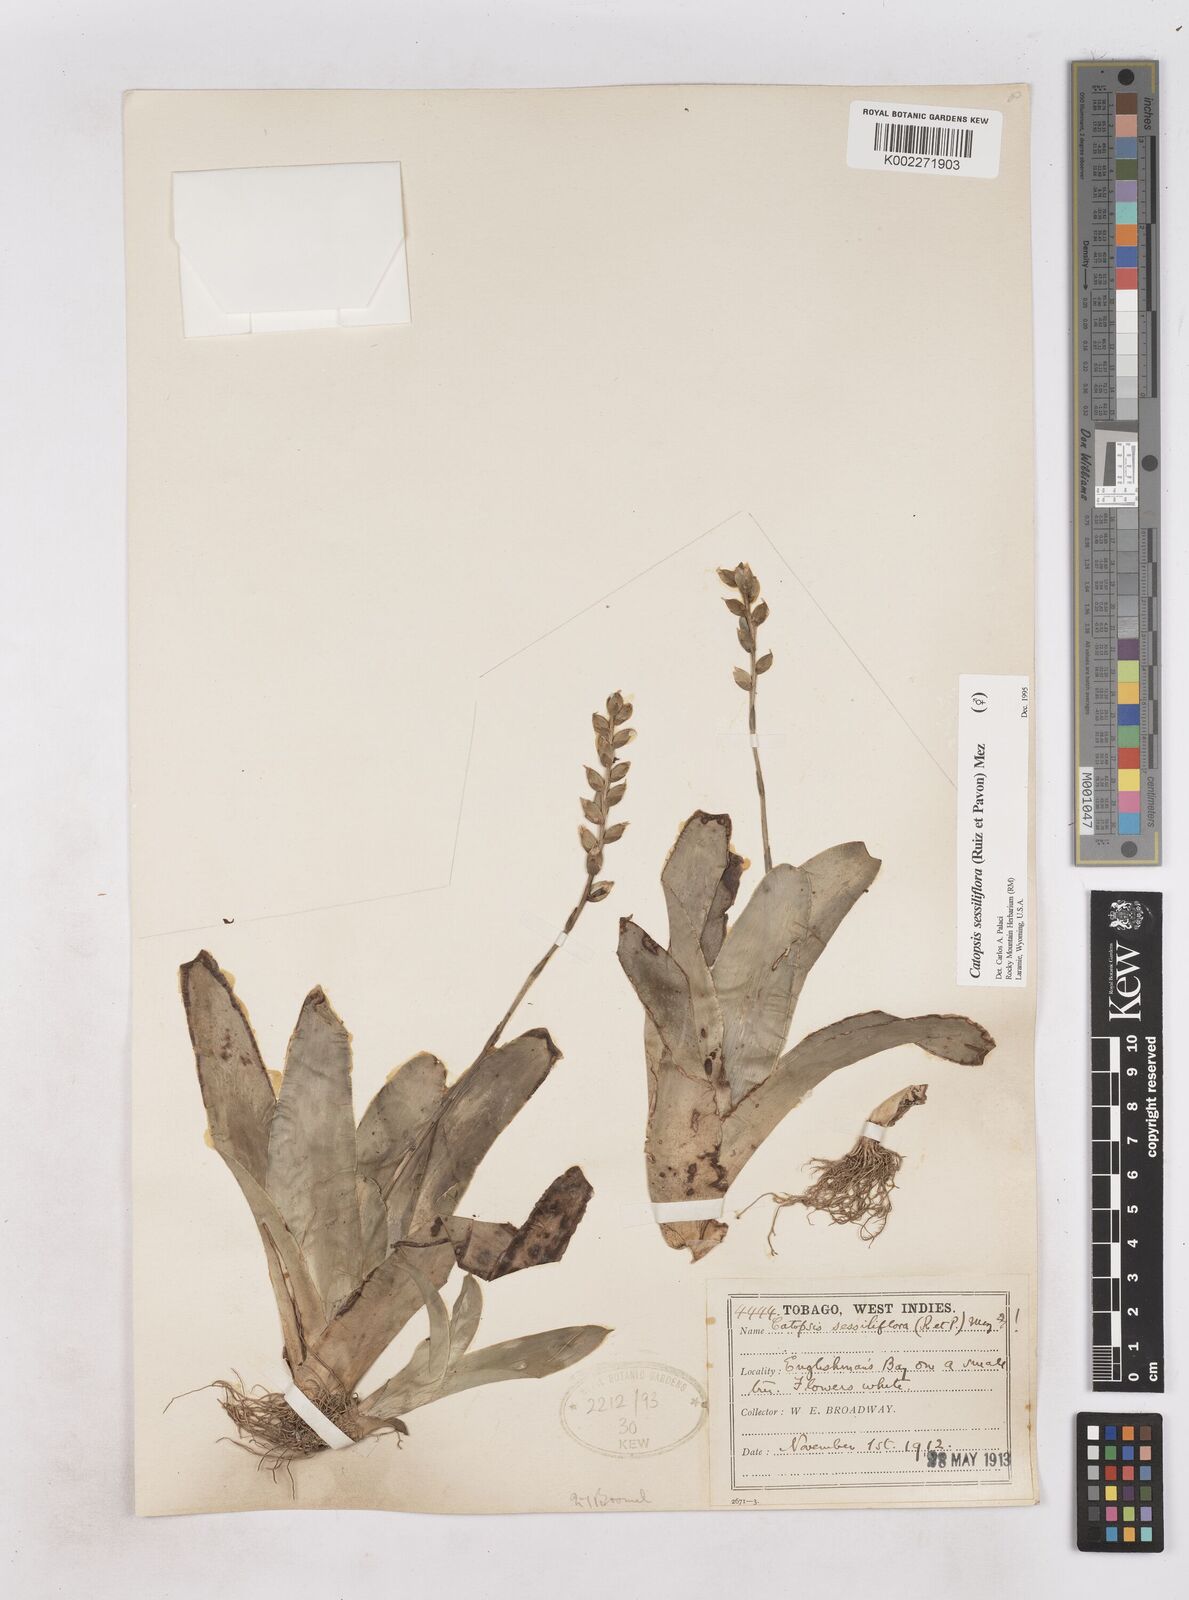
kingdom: Plantae
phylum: Tracheophyta
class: Liliopsida
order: Poales
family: Bromeliaceae
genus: Catopsis
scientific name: Catopsis sessiliflora
